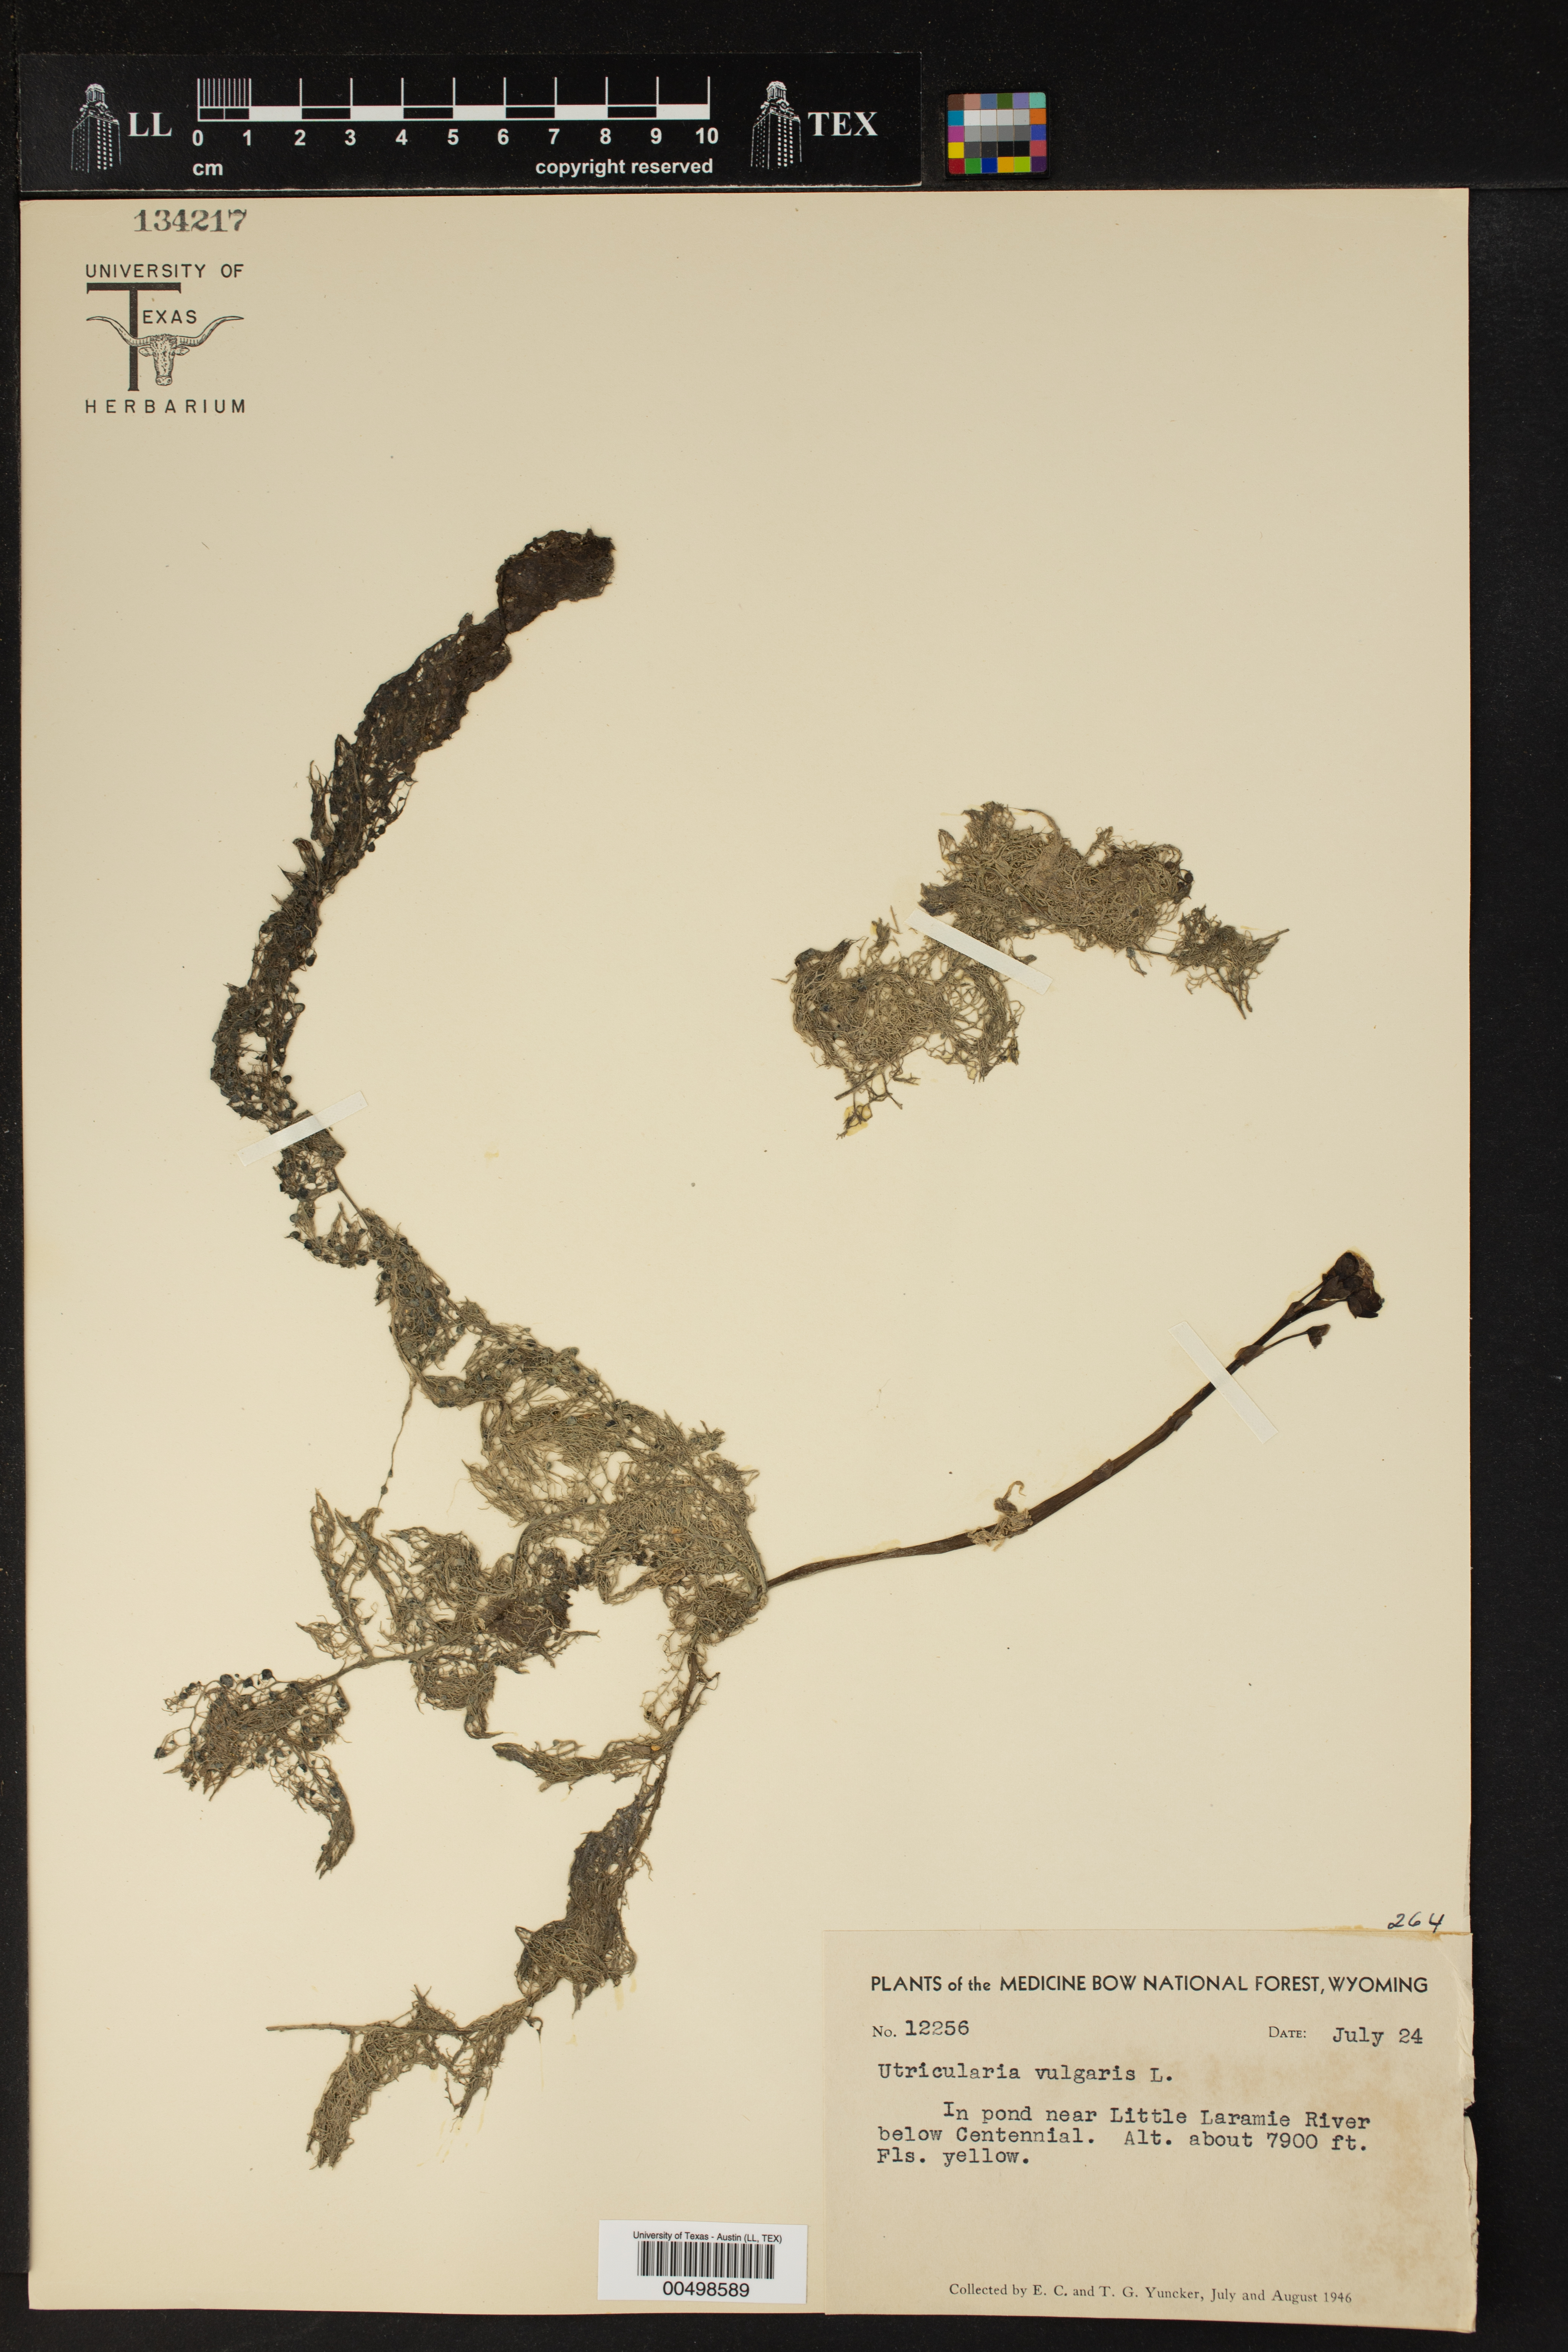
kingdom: Plantae
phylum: Tracheophyta
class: Magnoliopsida
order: Lamiales
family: Lentibulariaceae
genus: Utricularia
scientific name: Utricularia vulgaris
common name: Greater bladderwort
